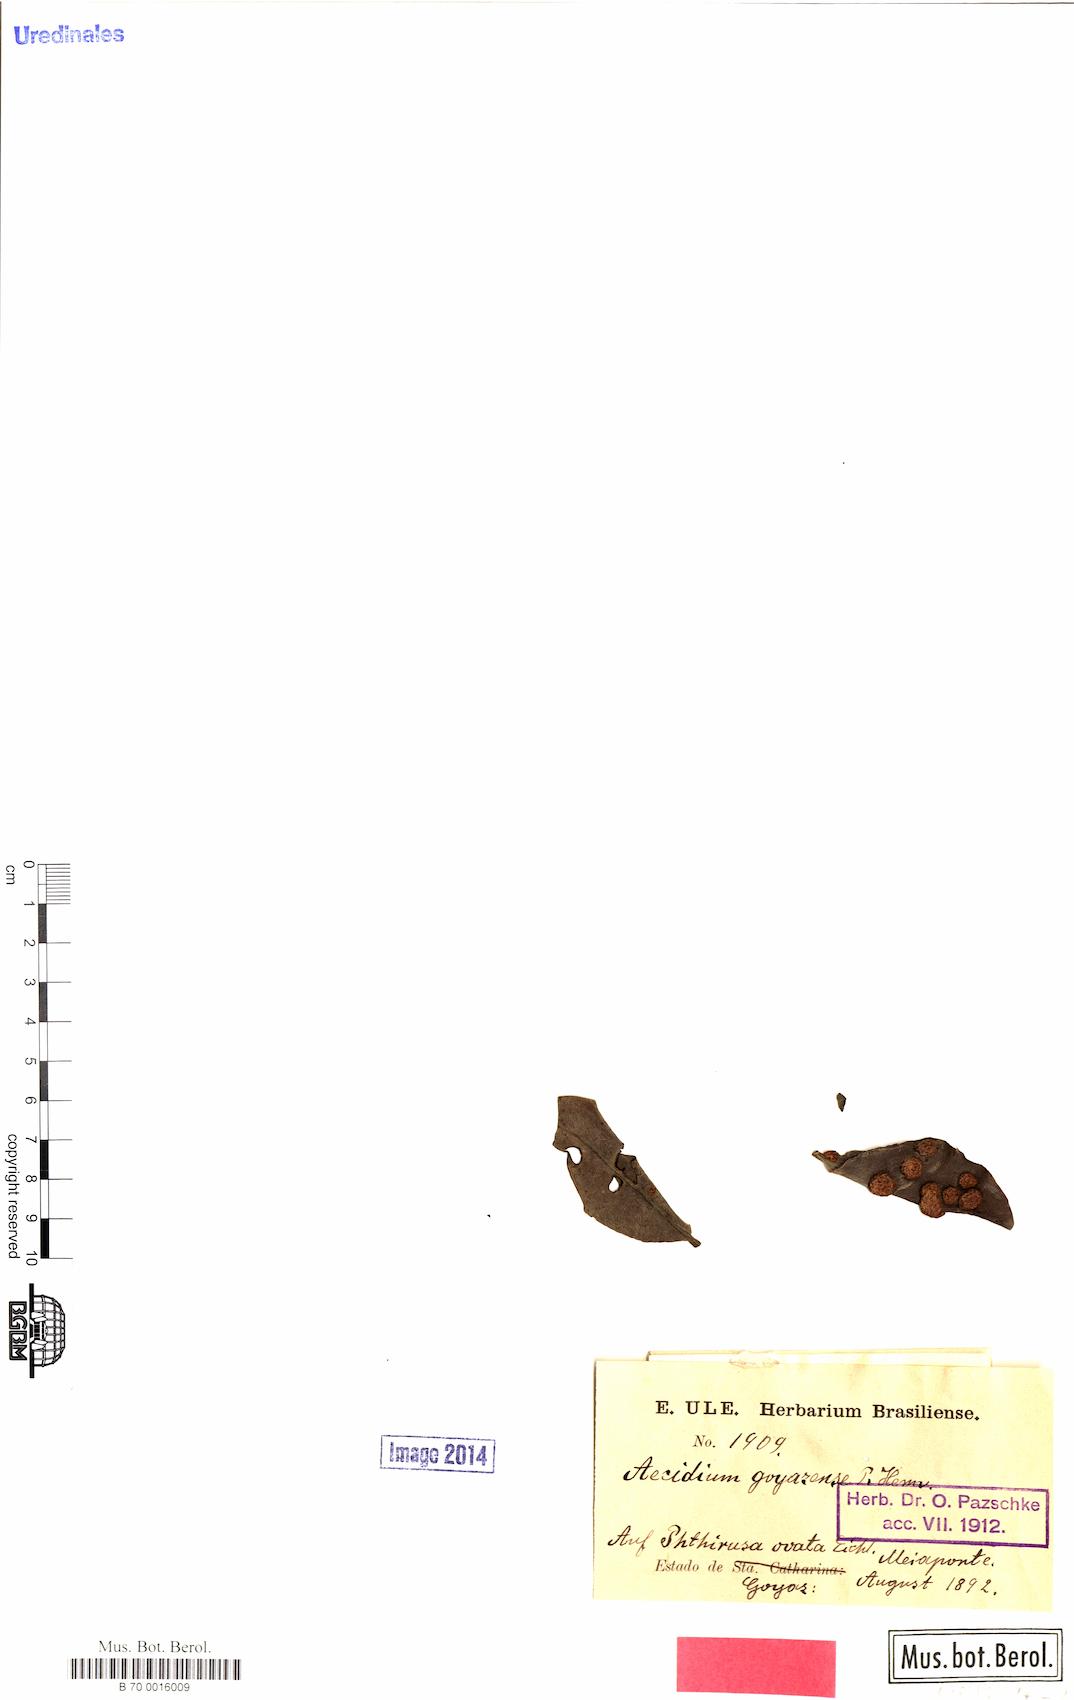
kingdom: Fungi
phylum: Basidiomycota
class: Pucciniomycetes
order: Pucciniales
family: Pucciniaceae
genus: Uromyces
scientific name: Uromyces hawksworthii
